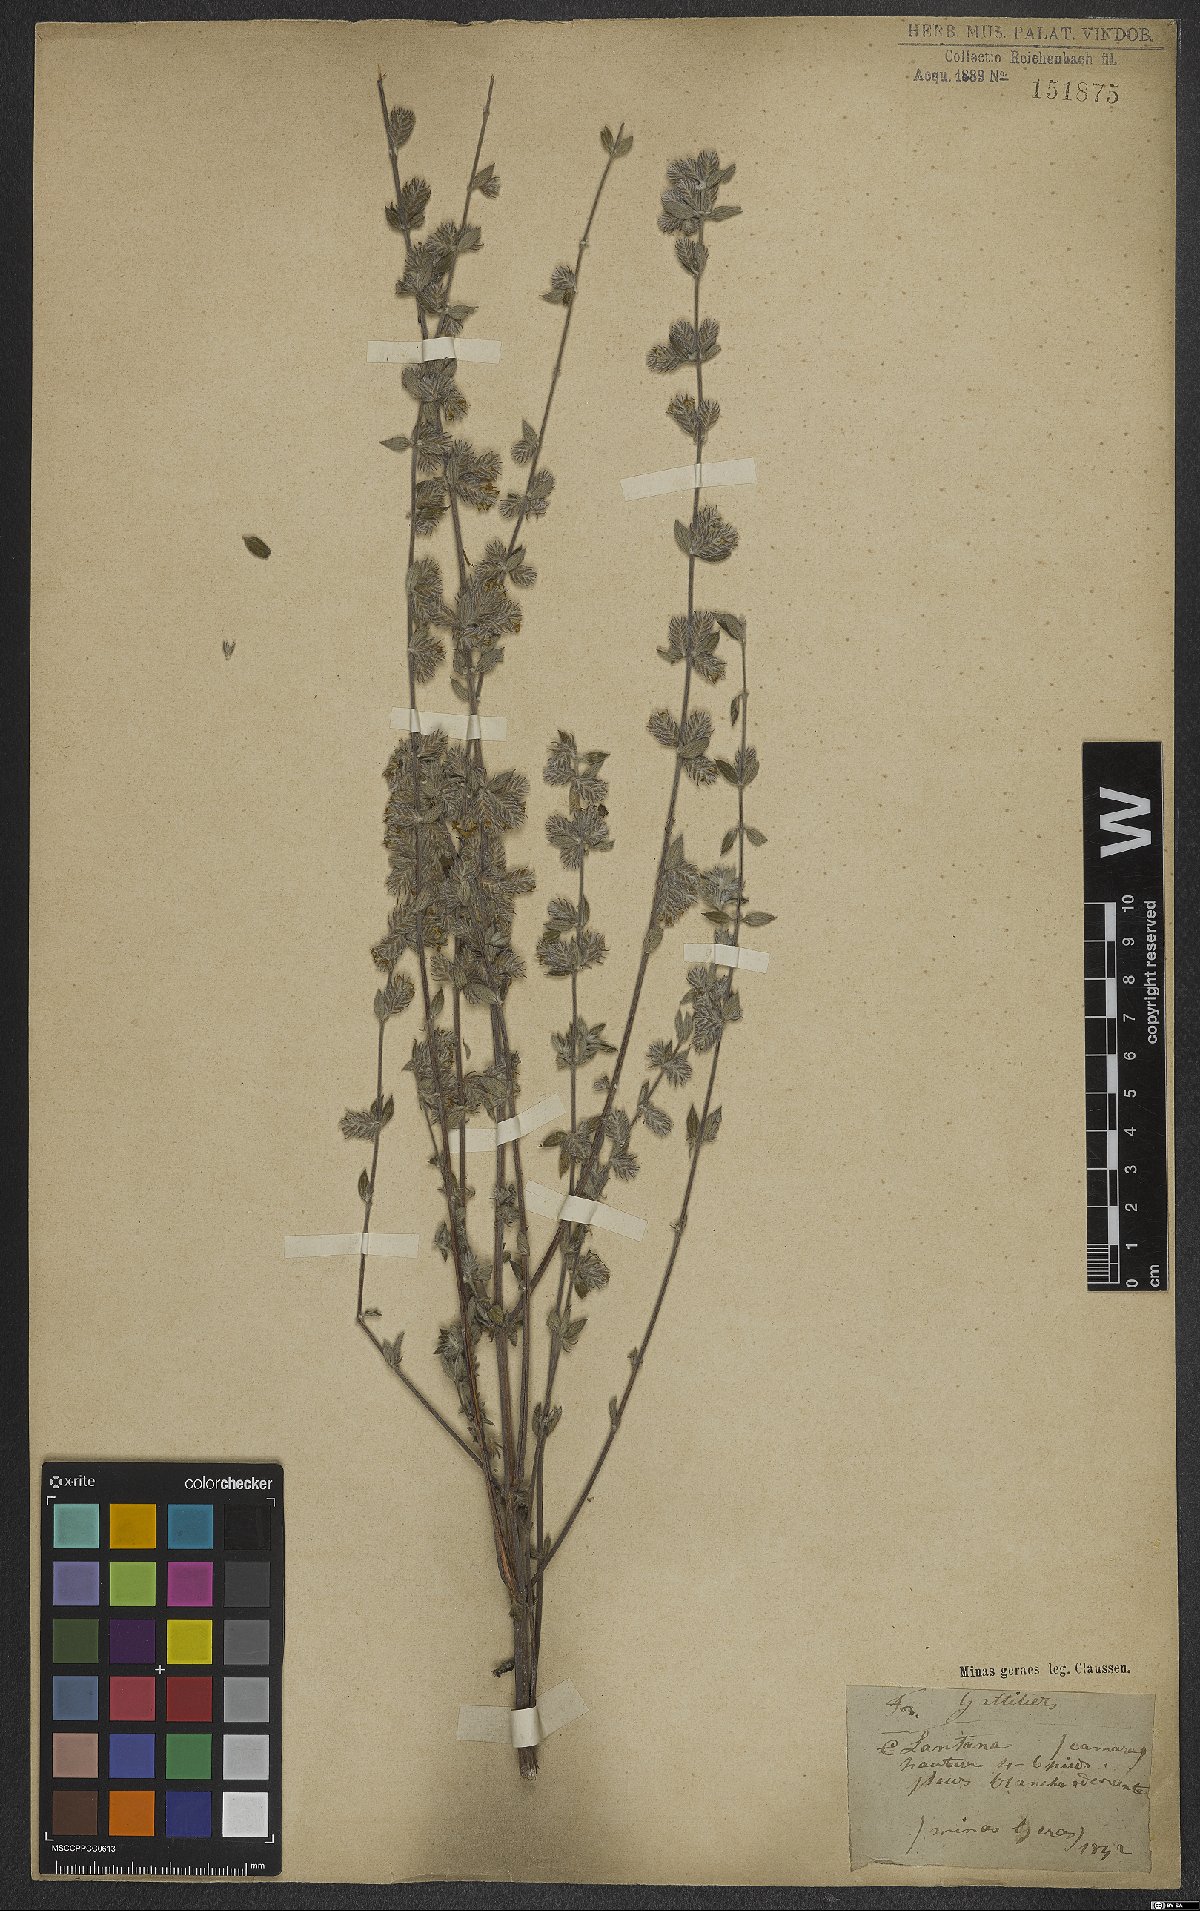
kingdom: Plantae
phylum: Tracheophyta
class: Magnoliopsida
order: Lamiales
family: Verbenaceae
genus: Lippia
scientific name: Lippia sericea
